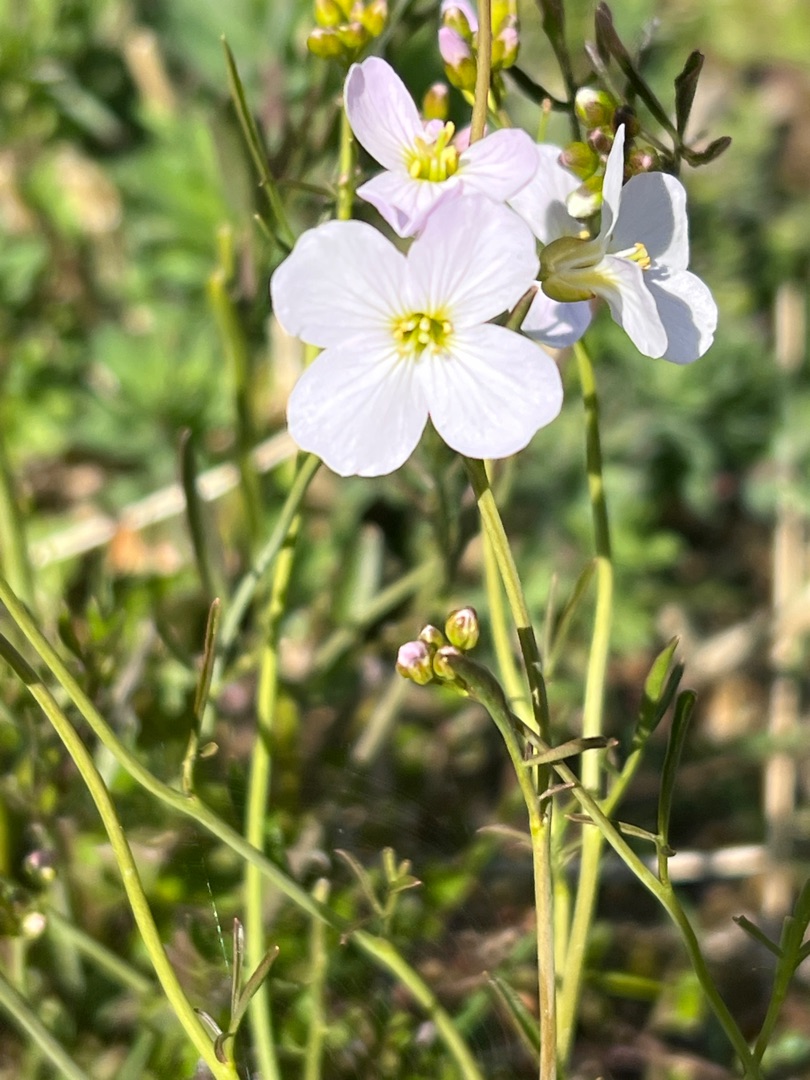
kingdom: Plantae
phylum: Tracheophyta
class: Magnoliopsida
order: Brassicales
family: Brassicaceae
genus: Cardamine
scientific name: Cardamine pratensis
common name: Engkarse
